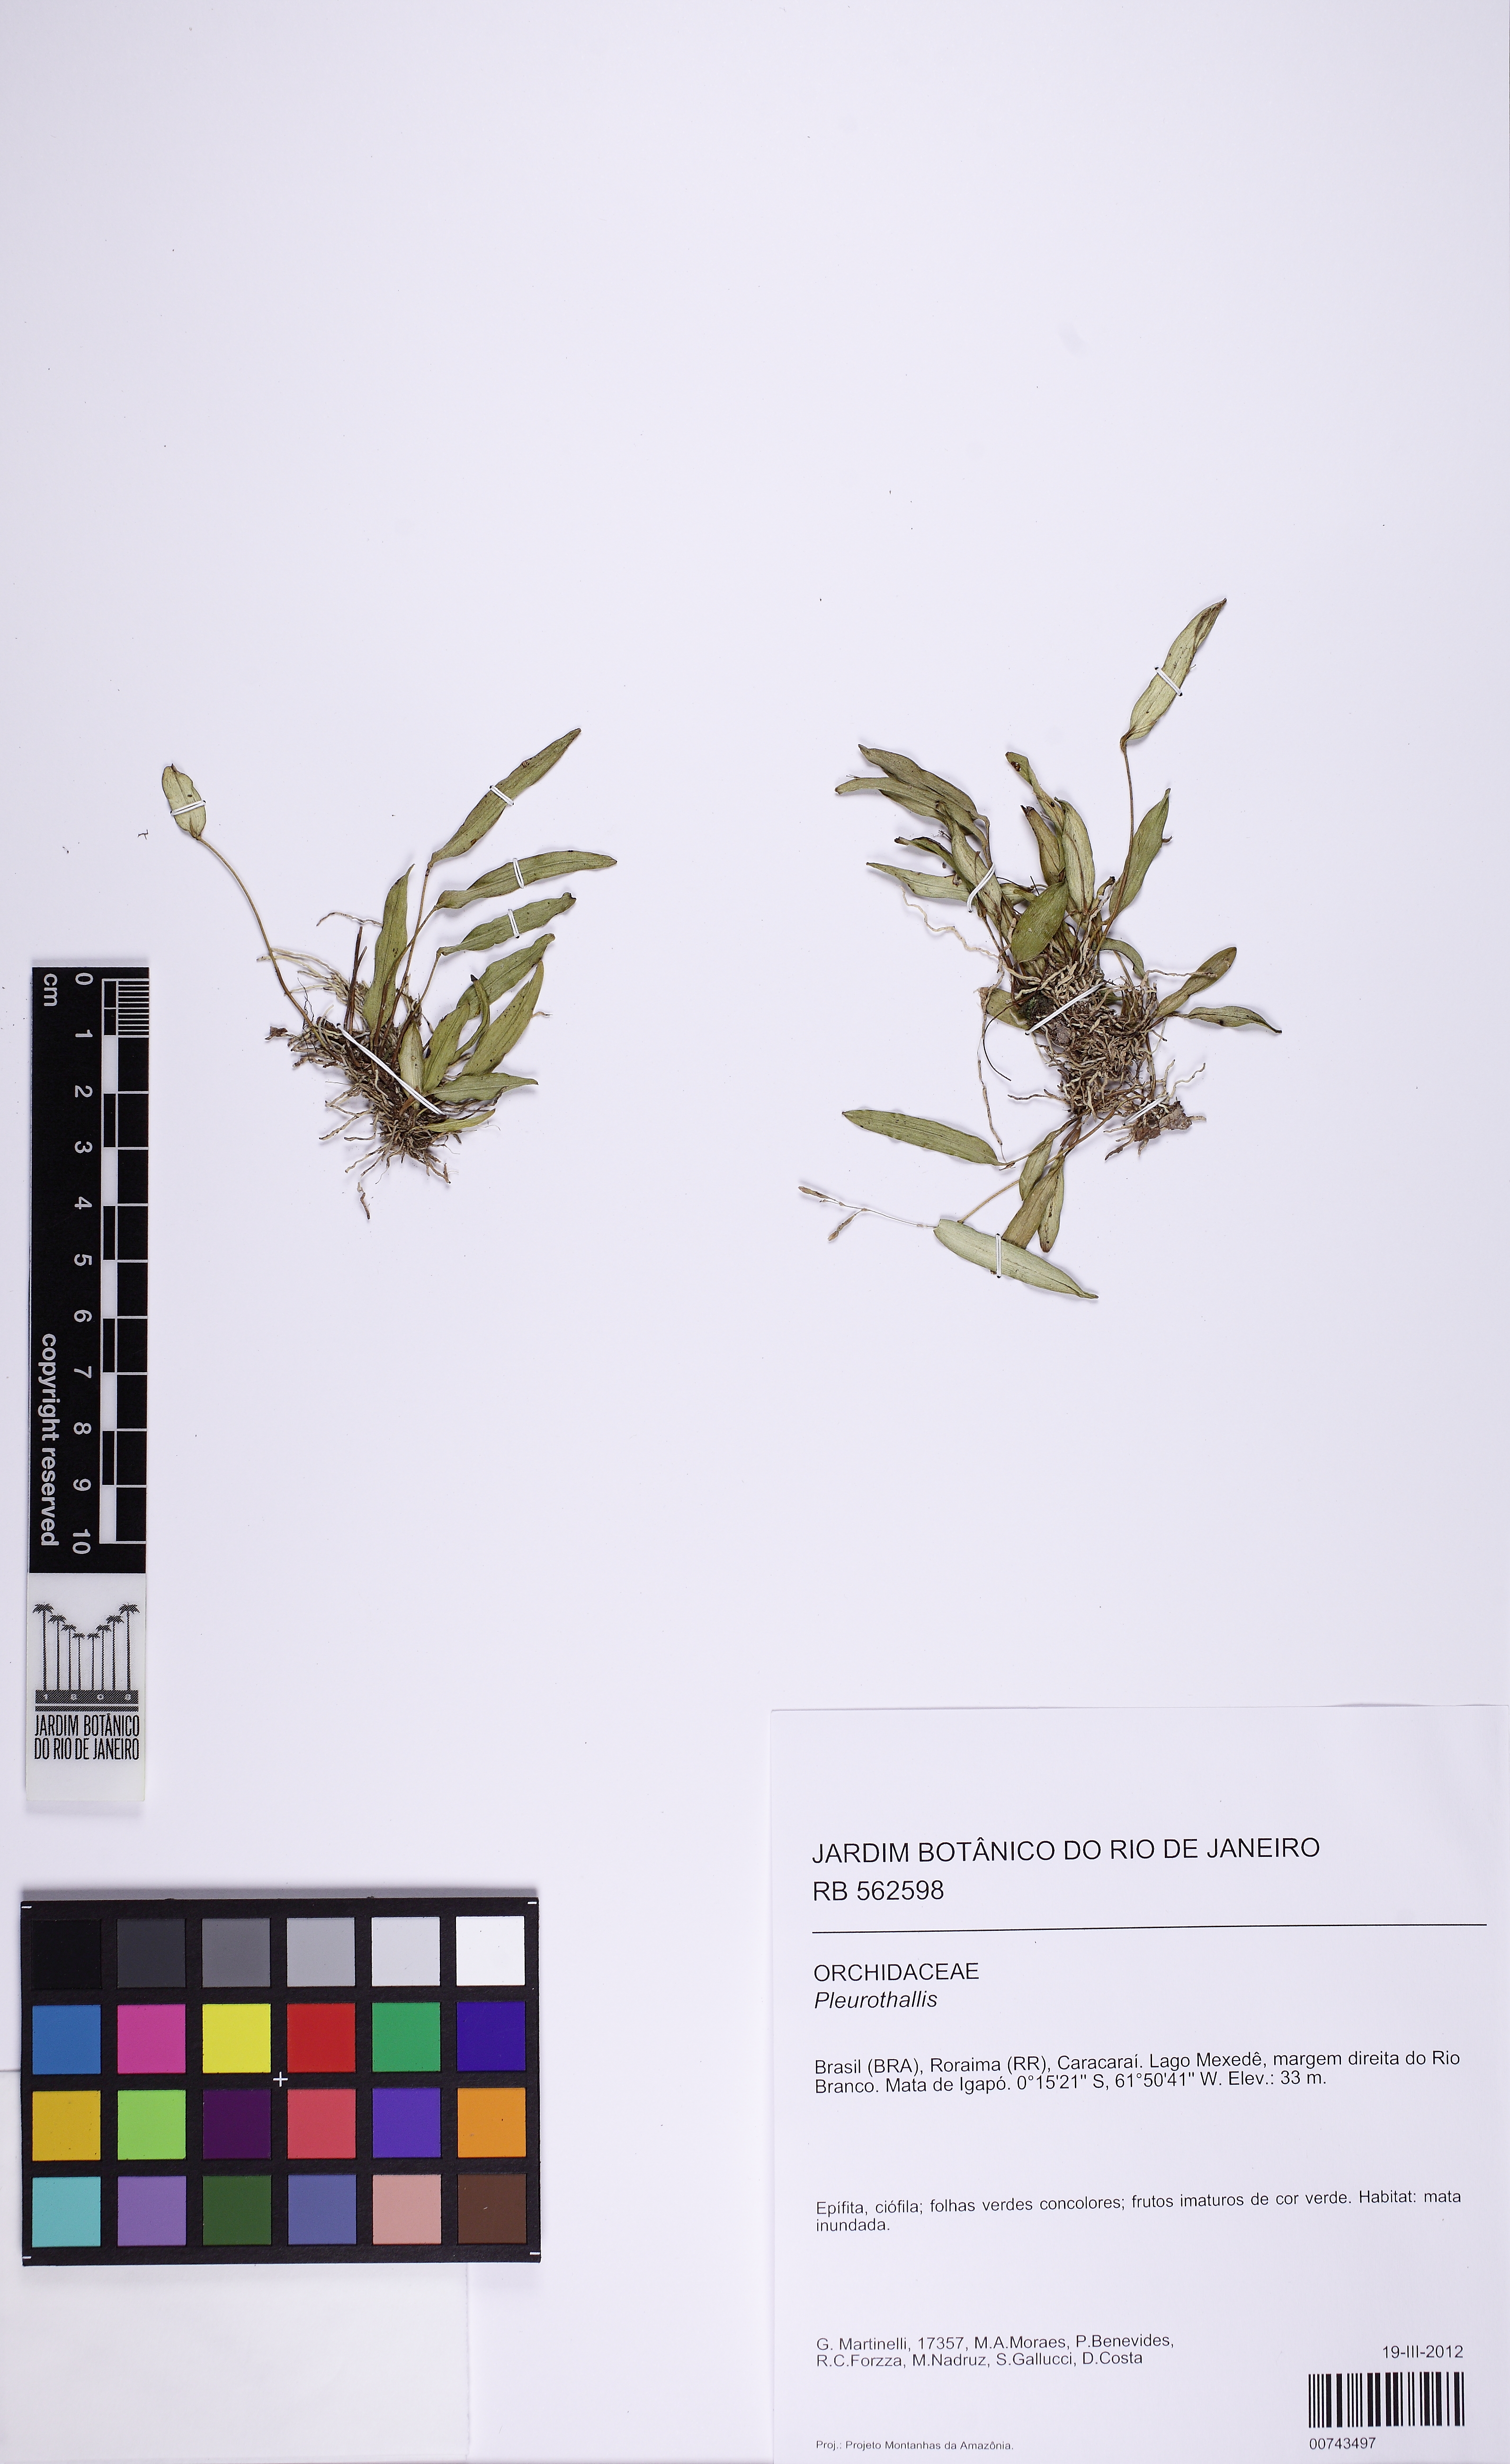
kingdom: Plantae
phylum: Tracheophyta
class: Liliopsida
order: Asparagales
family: Orchidaceae
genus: Pleurothallis
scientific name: Pleurothallis
